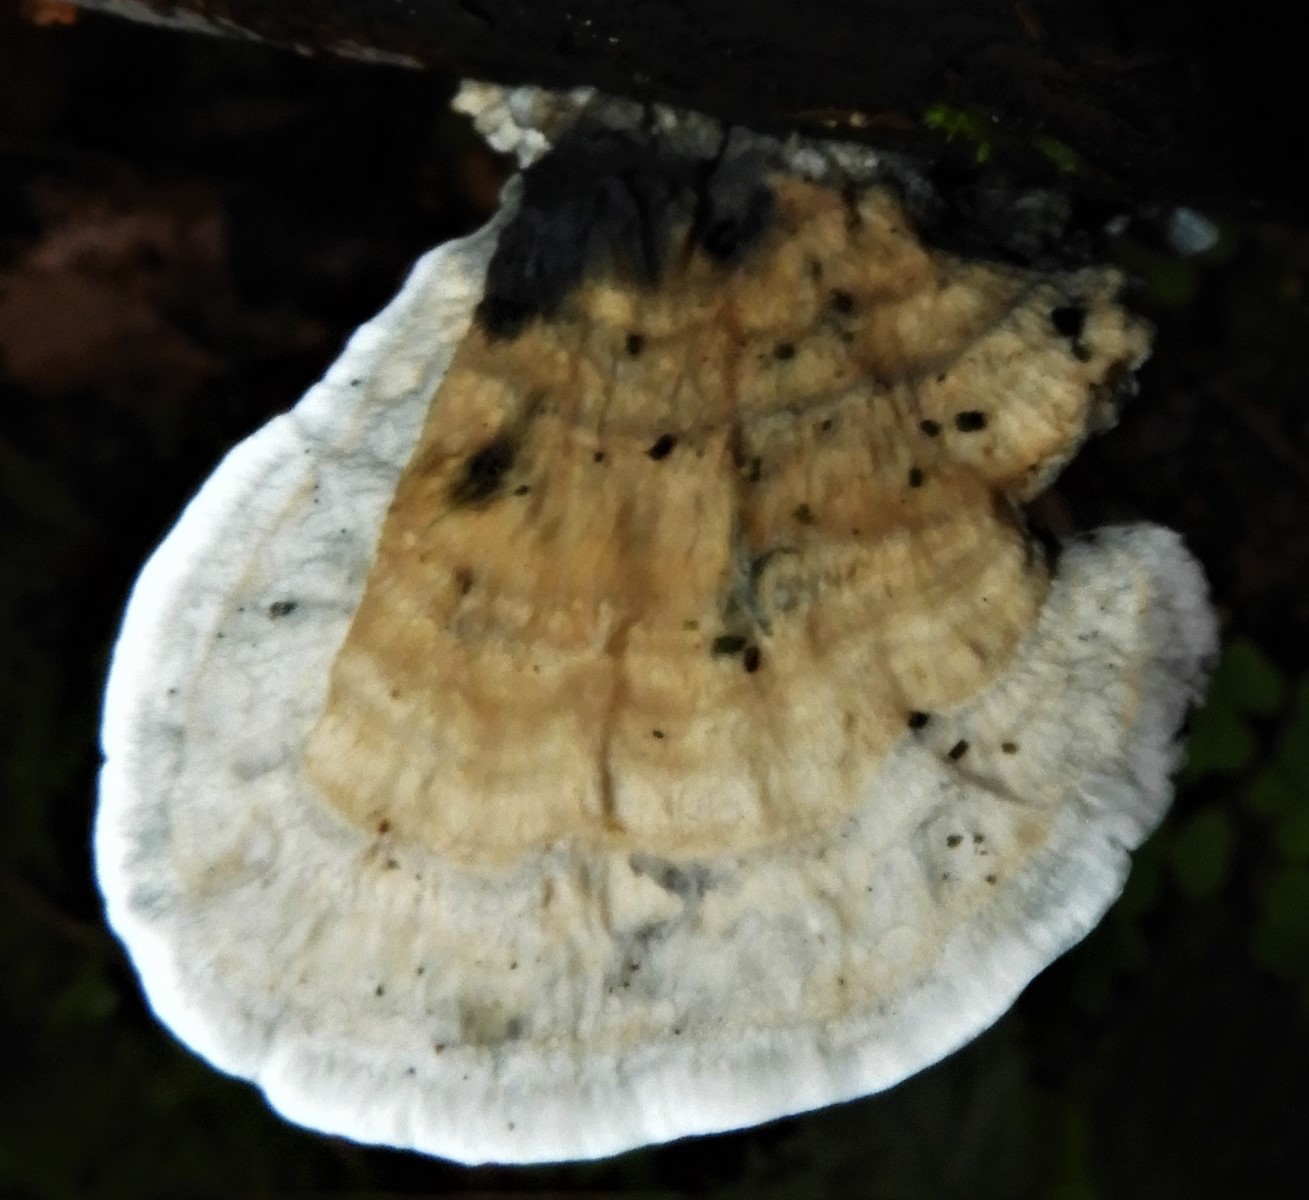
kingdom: Fungi
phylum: Basidiomycota
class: Agaricomycetes
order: Polyporales
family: Polyporaceae
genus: Cyanosporus
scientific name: Cyanosporus alni
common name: blegblå kødporesvamp
